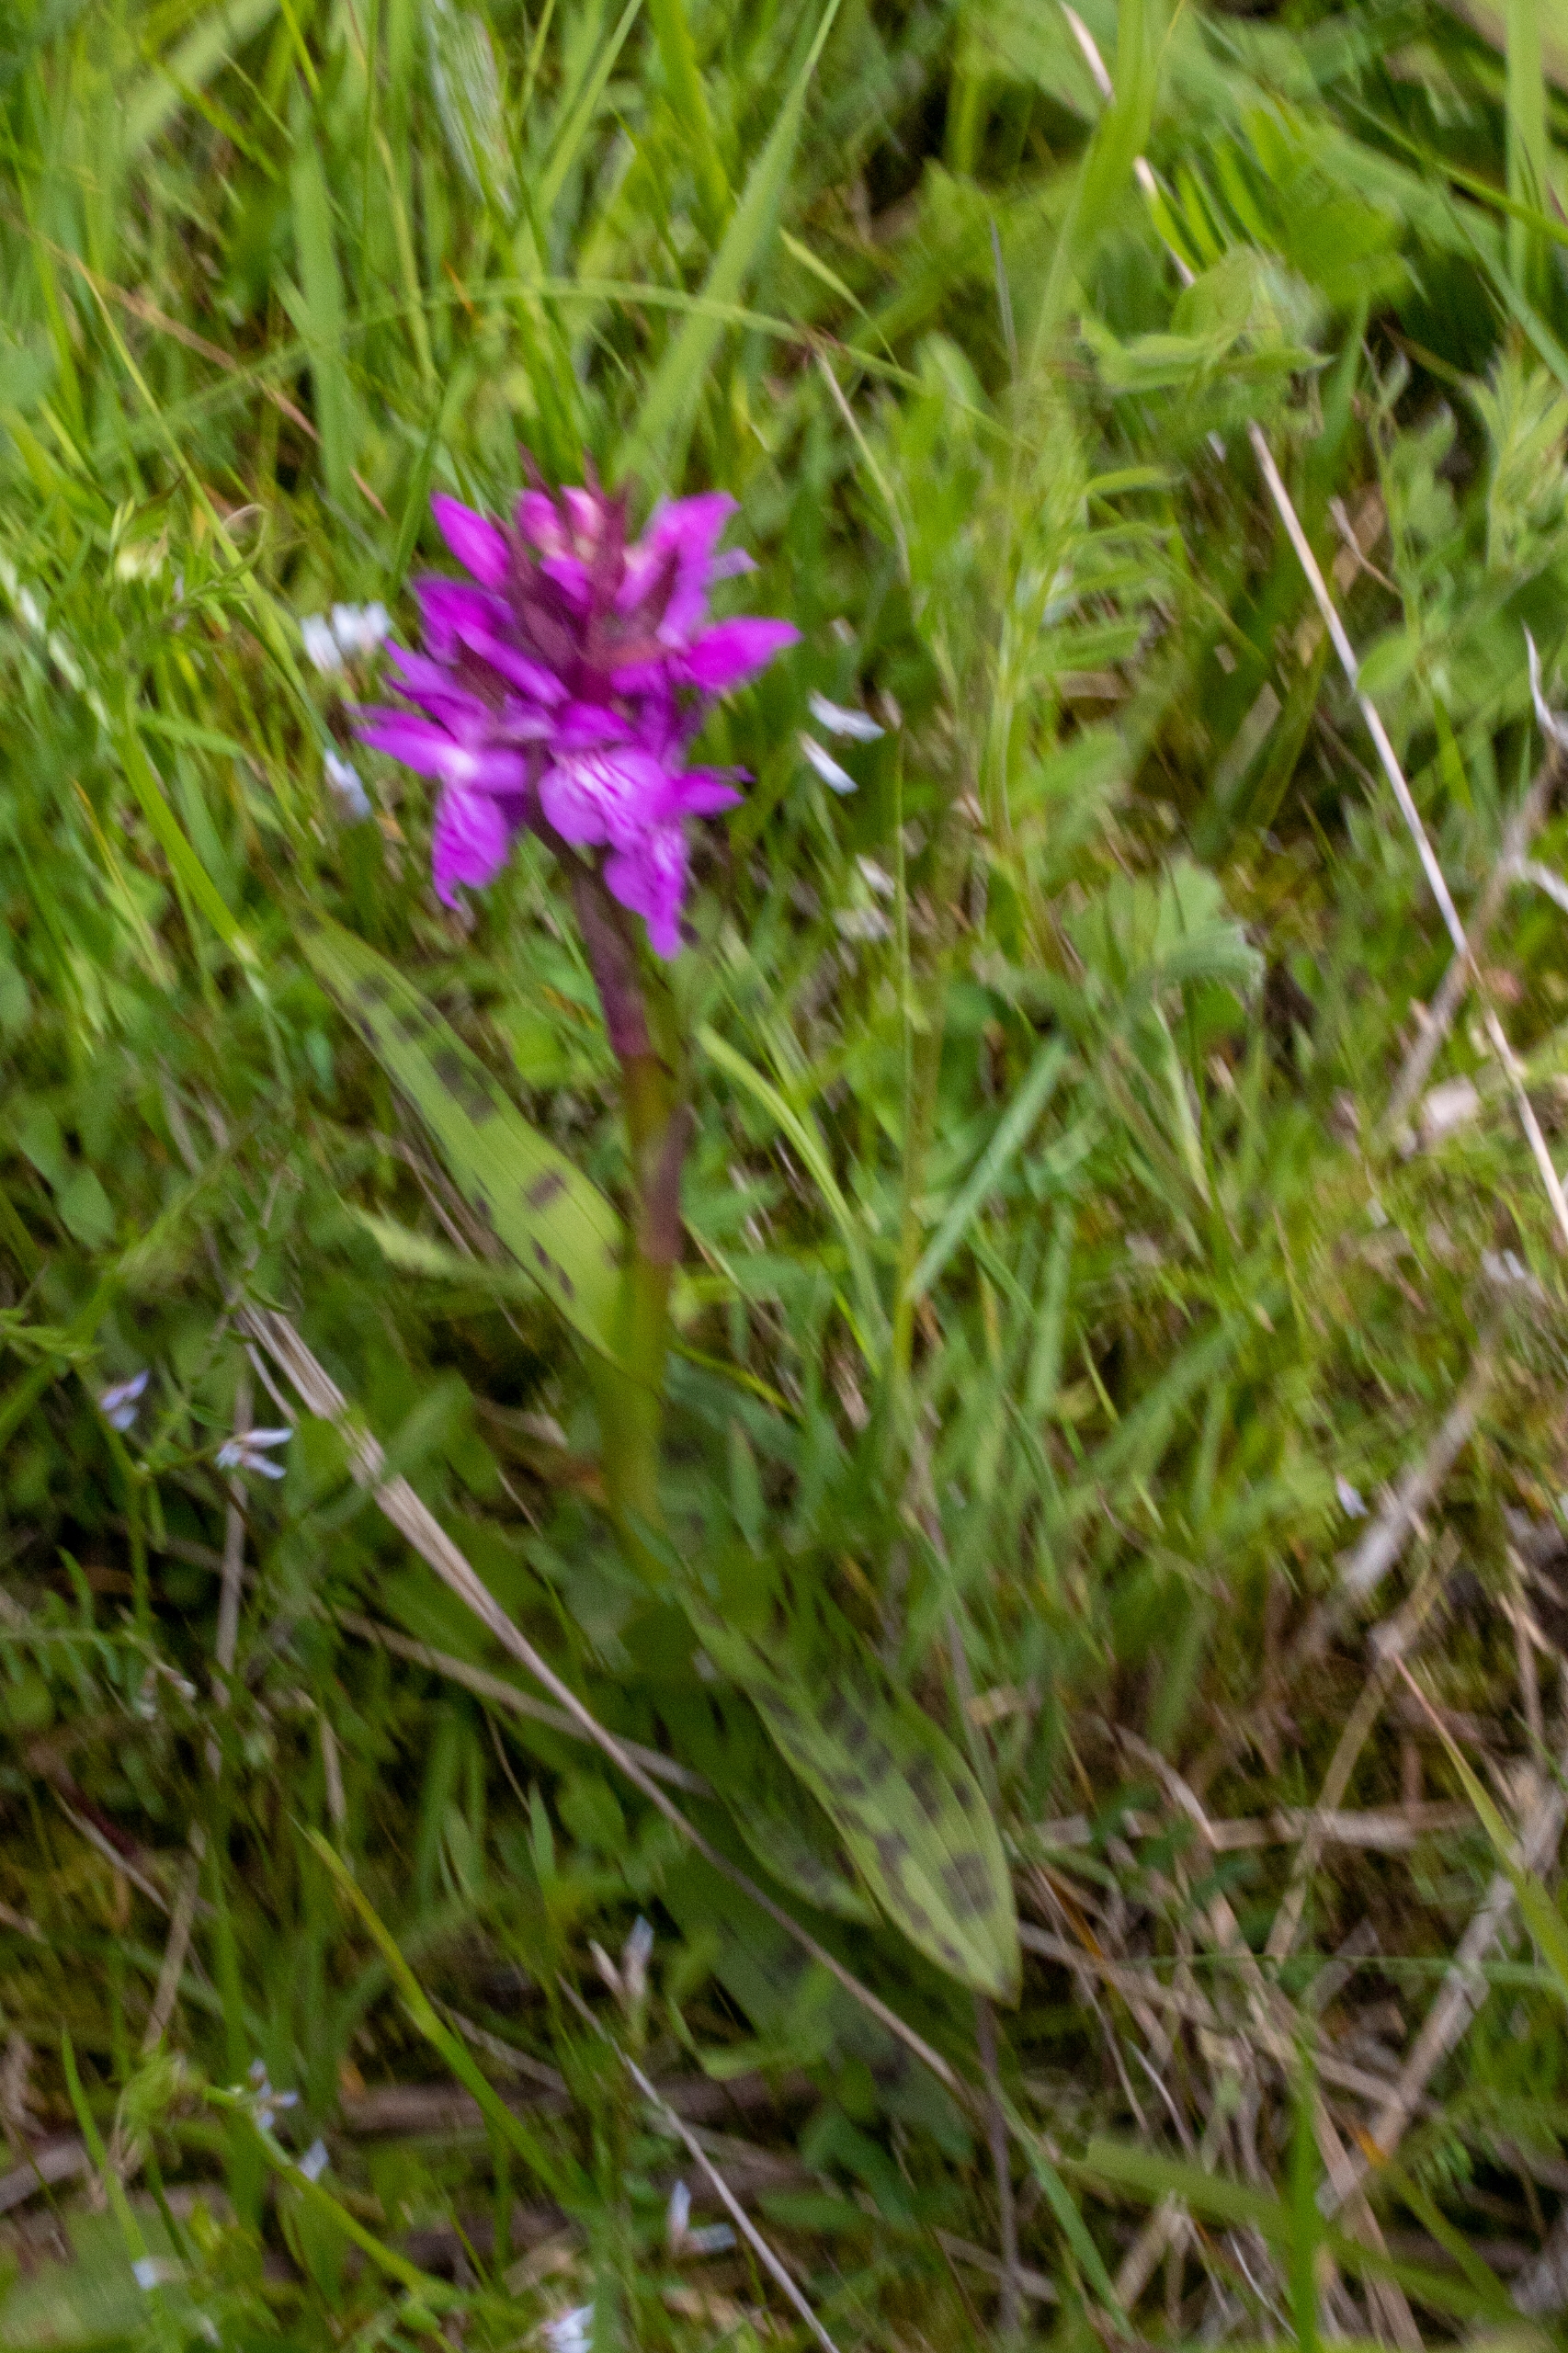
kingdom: Plantae
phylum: Tracheophyta
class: Liliopsida
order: Asparagales
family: Orchidaceae
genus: Dactylorhiza
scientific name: Dactylorhiza majalis
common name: Maj-gøgeurt
